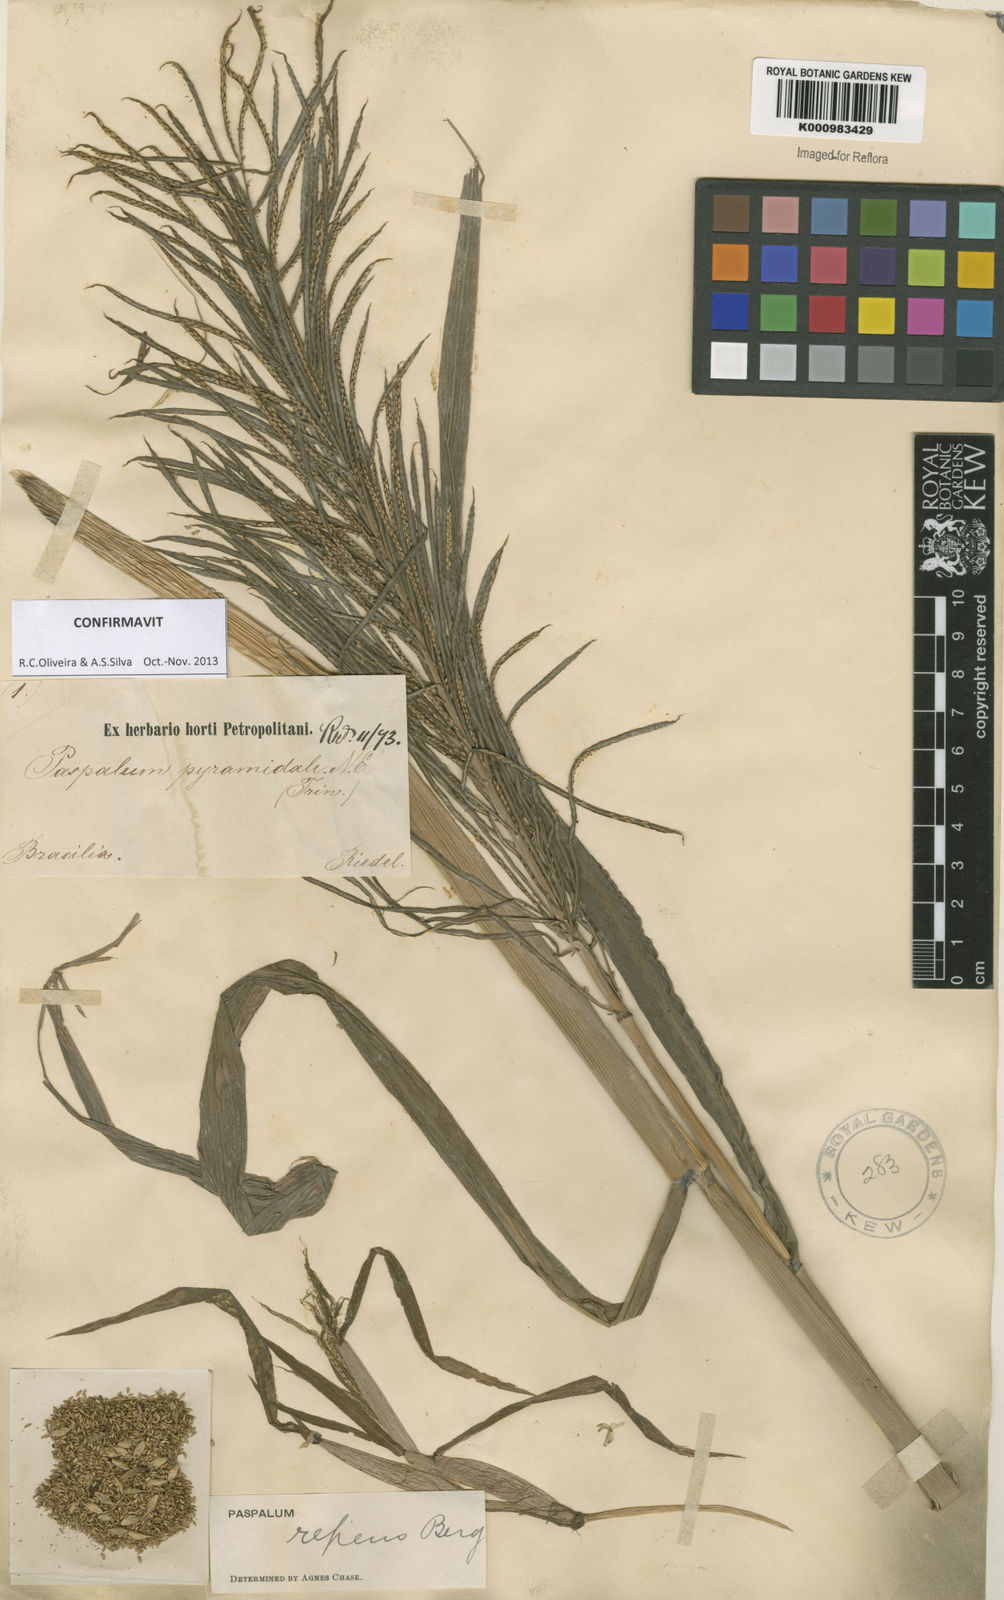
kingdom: Plantae
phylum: Tracheophyta
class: Liliopsida
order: Poales
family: Poaceae
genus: Paspalum
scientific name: Paspalum repens
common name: Water paspalum
